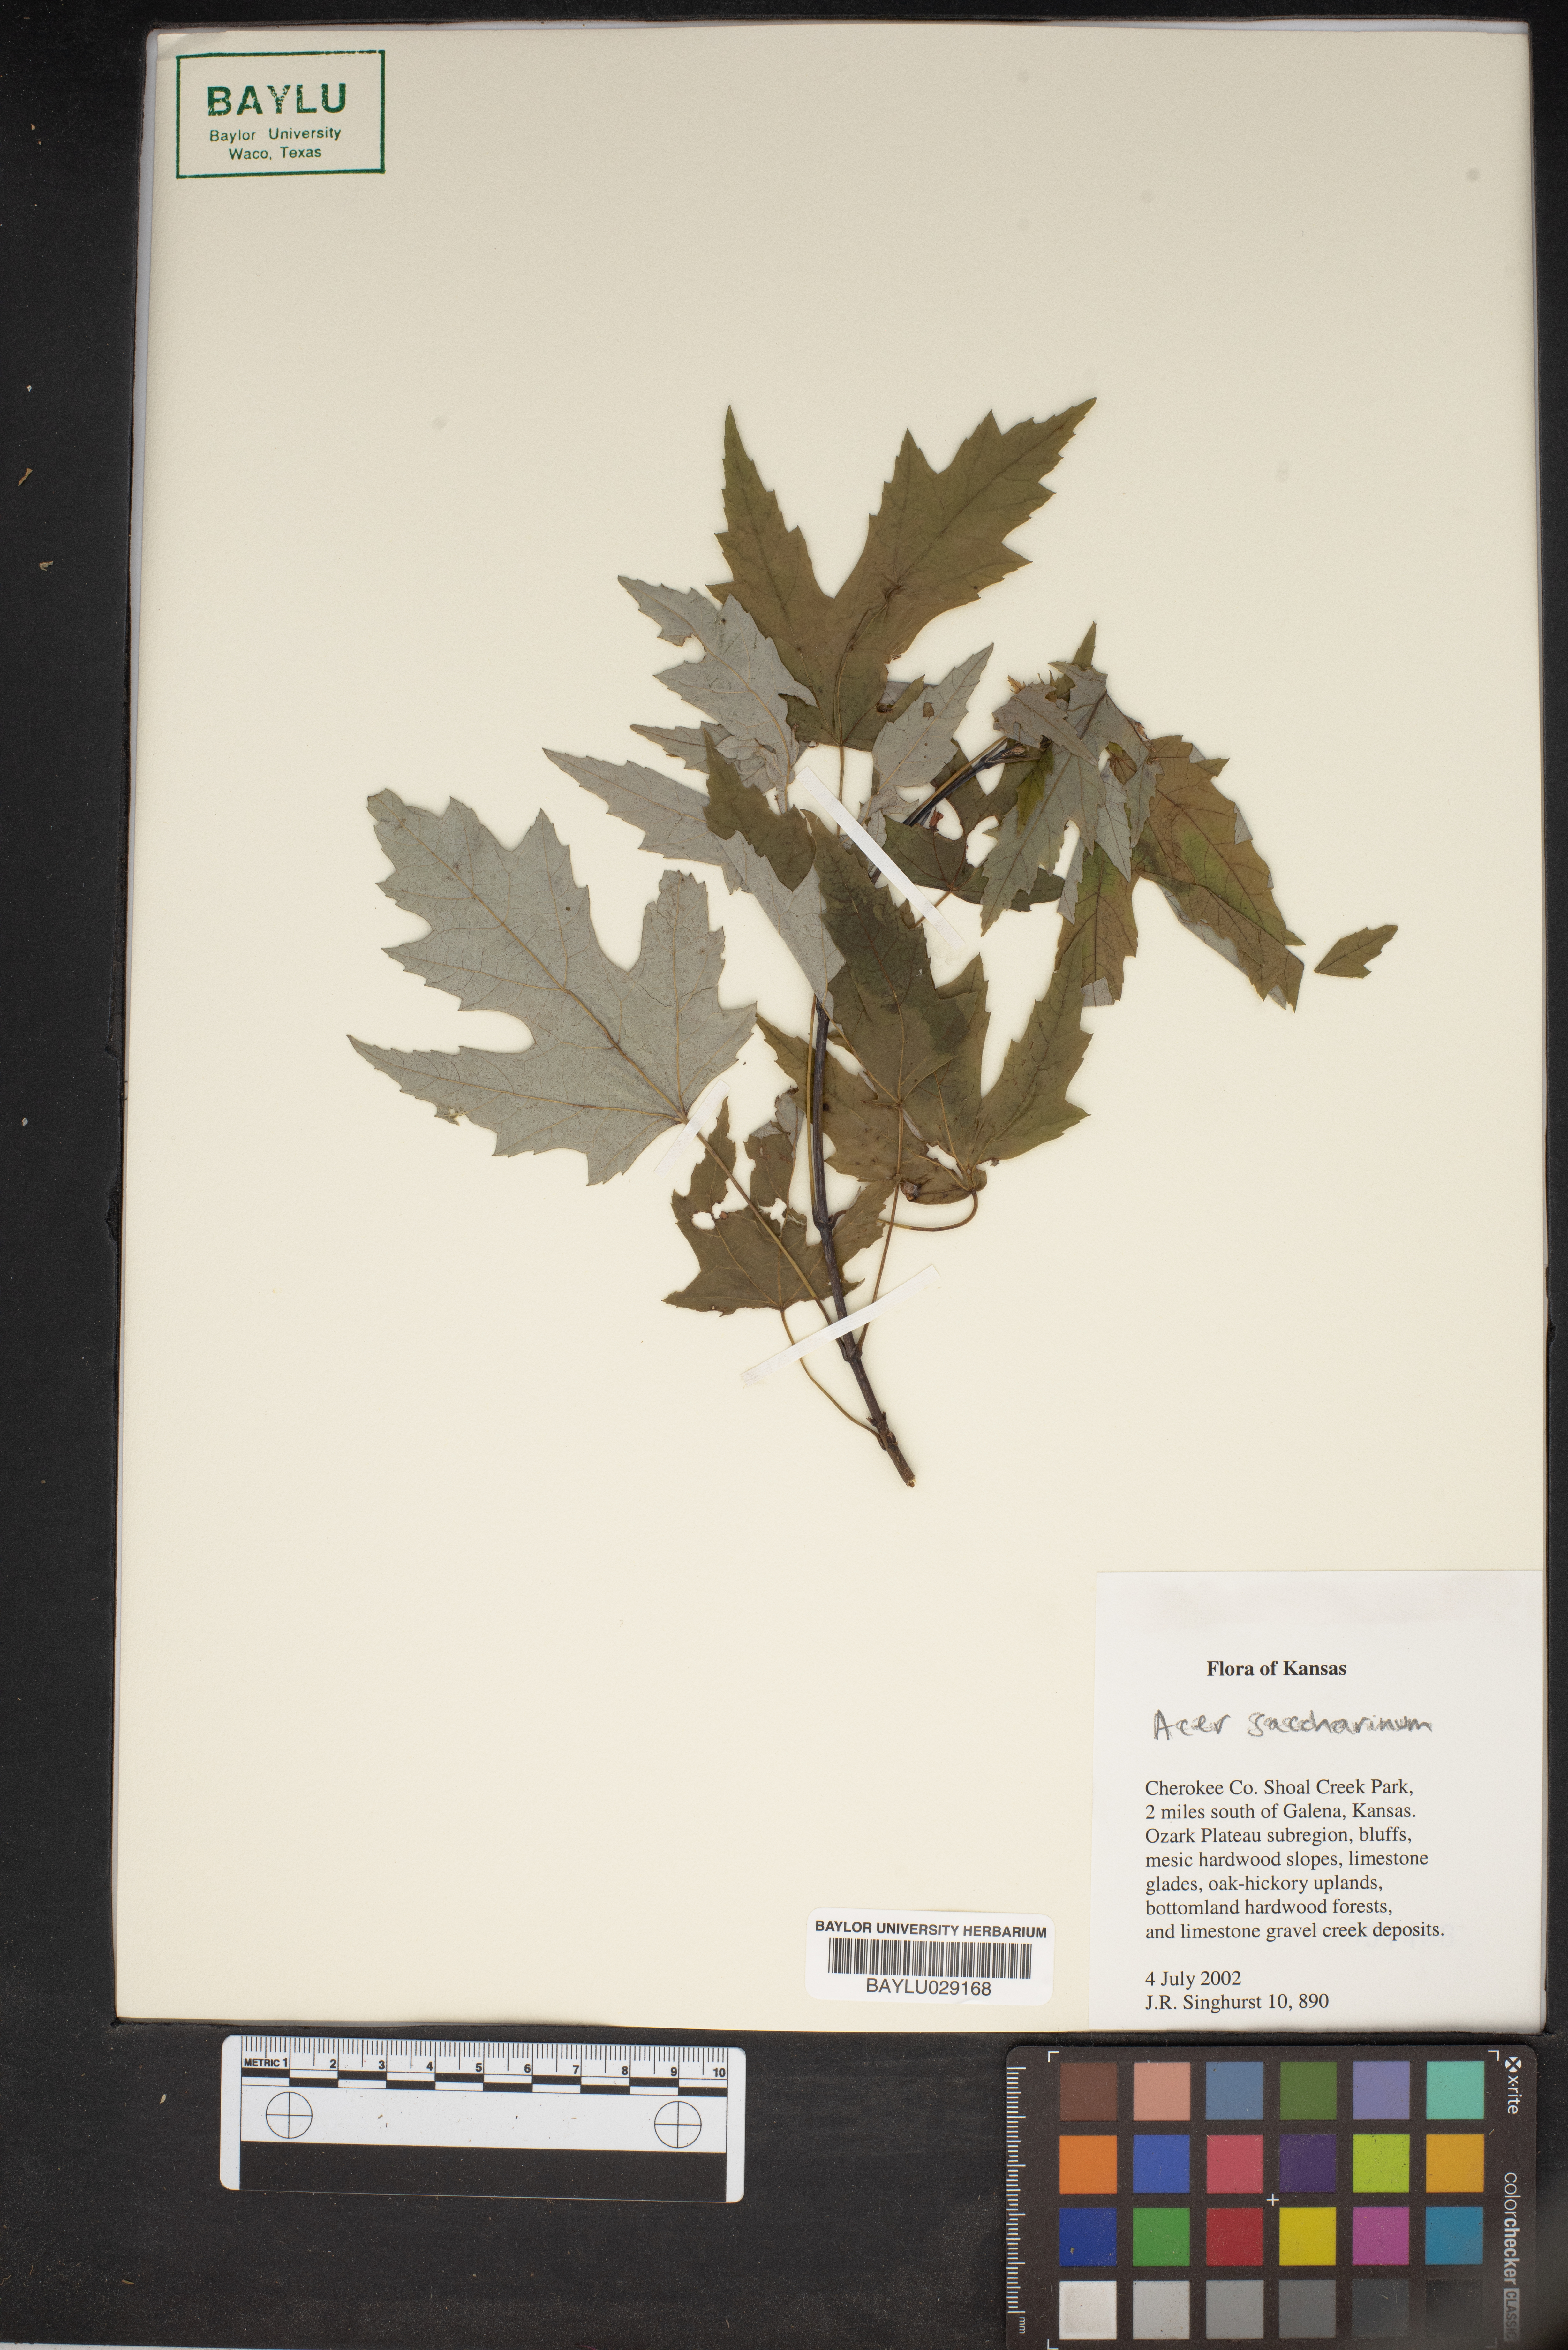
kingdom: Plantae
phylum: Tracheophyta
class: Magnoliopsida
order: Sapindales
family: Sapindaceae
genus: Acer
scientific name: Acer saccharinum
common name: Silver maple
